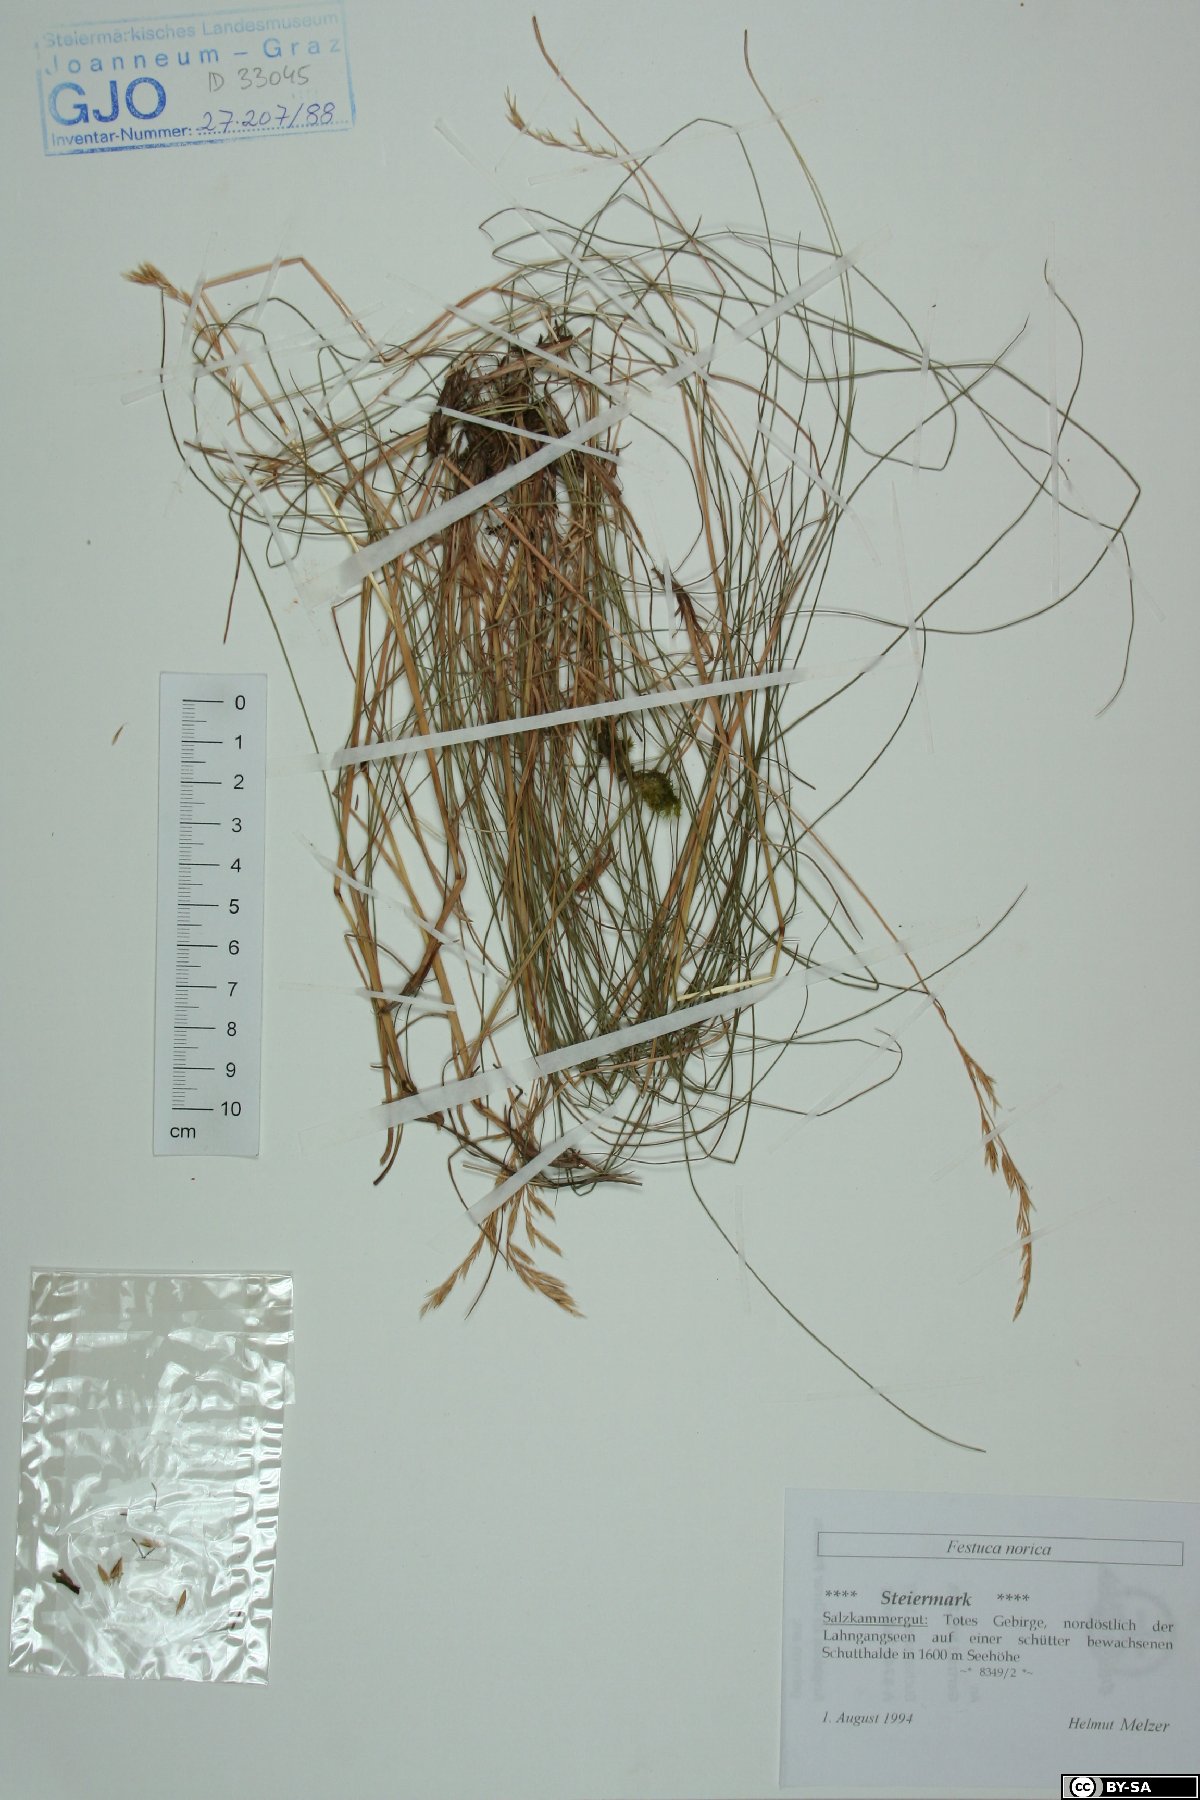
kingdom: Plantae
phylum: Tracheophyta
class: Liliopsida
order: Poales
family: Poaceae
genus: Festuca
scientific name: Festuca norica
